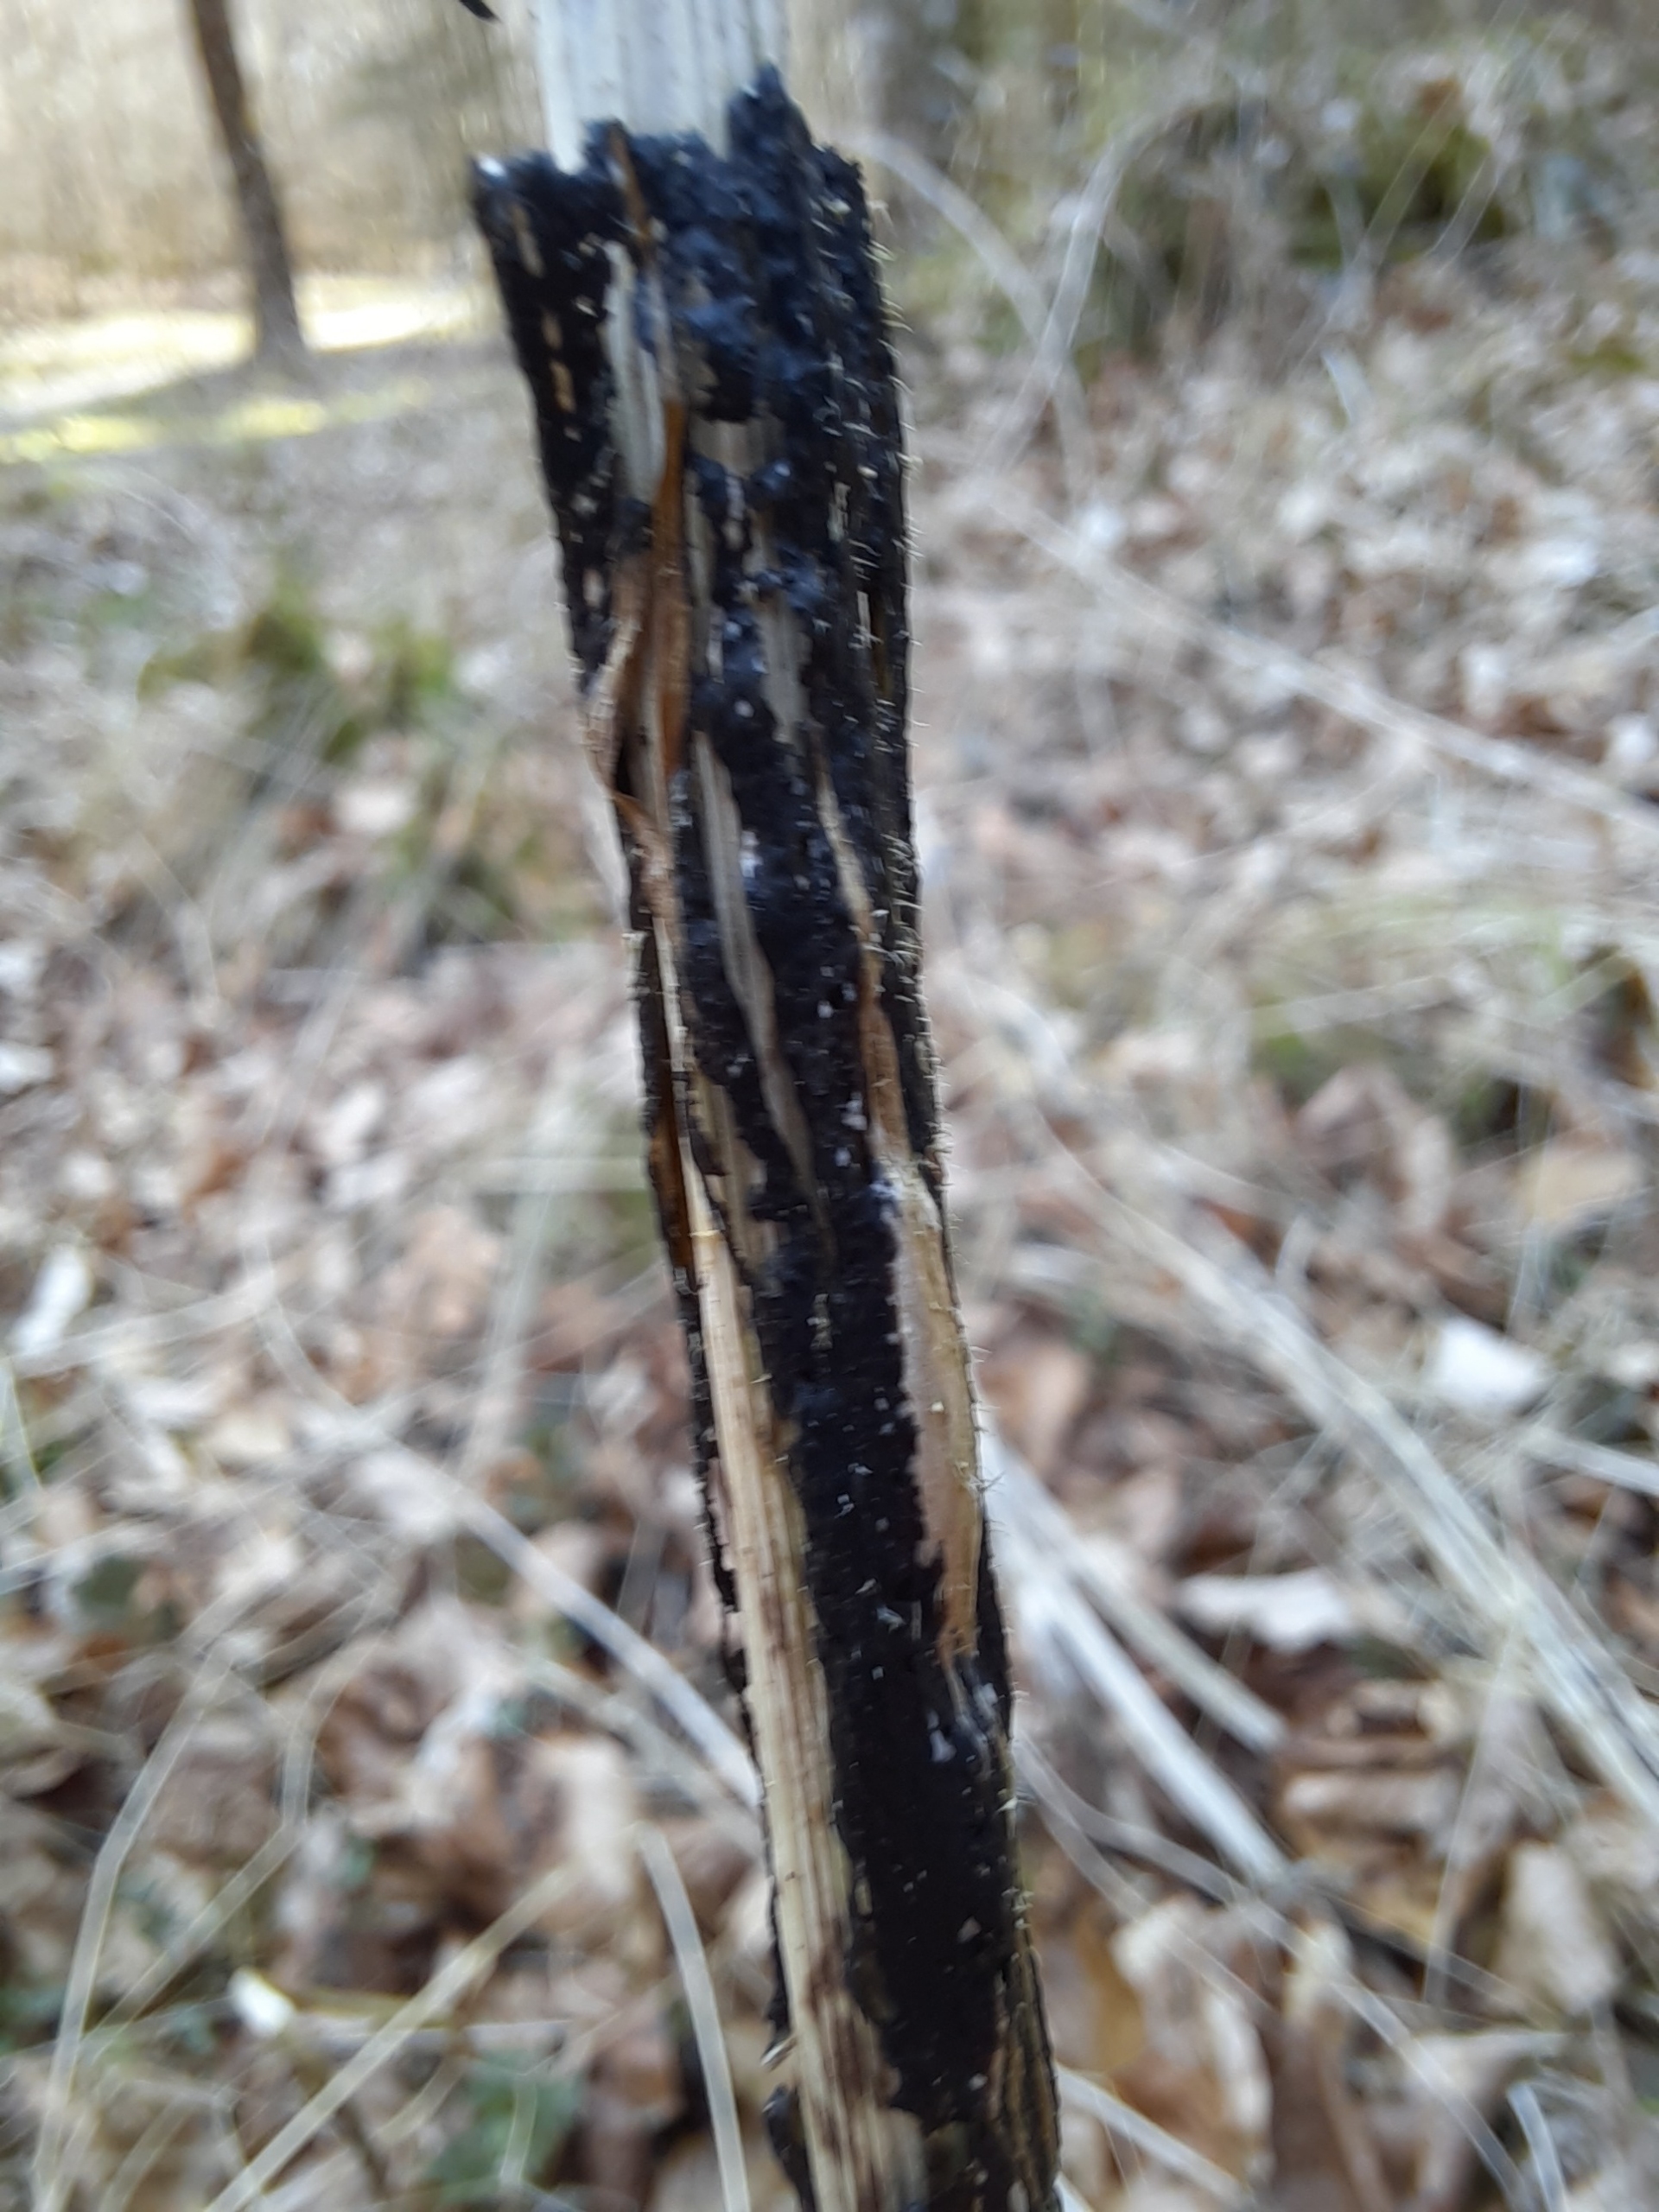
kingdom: Fungi
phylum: Ascomycota
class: Sordariomycetes
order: Diaporthales
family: Diaporthaceae
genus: Diaporthopsis
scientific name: Diaporthopsis urticae
